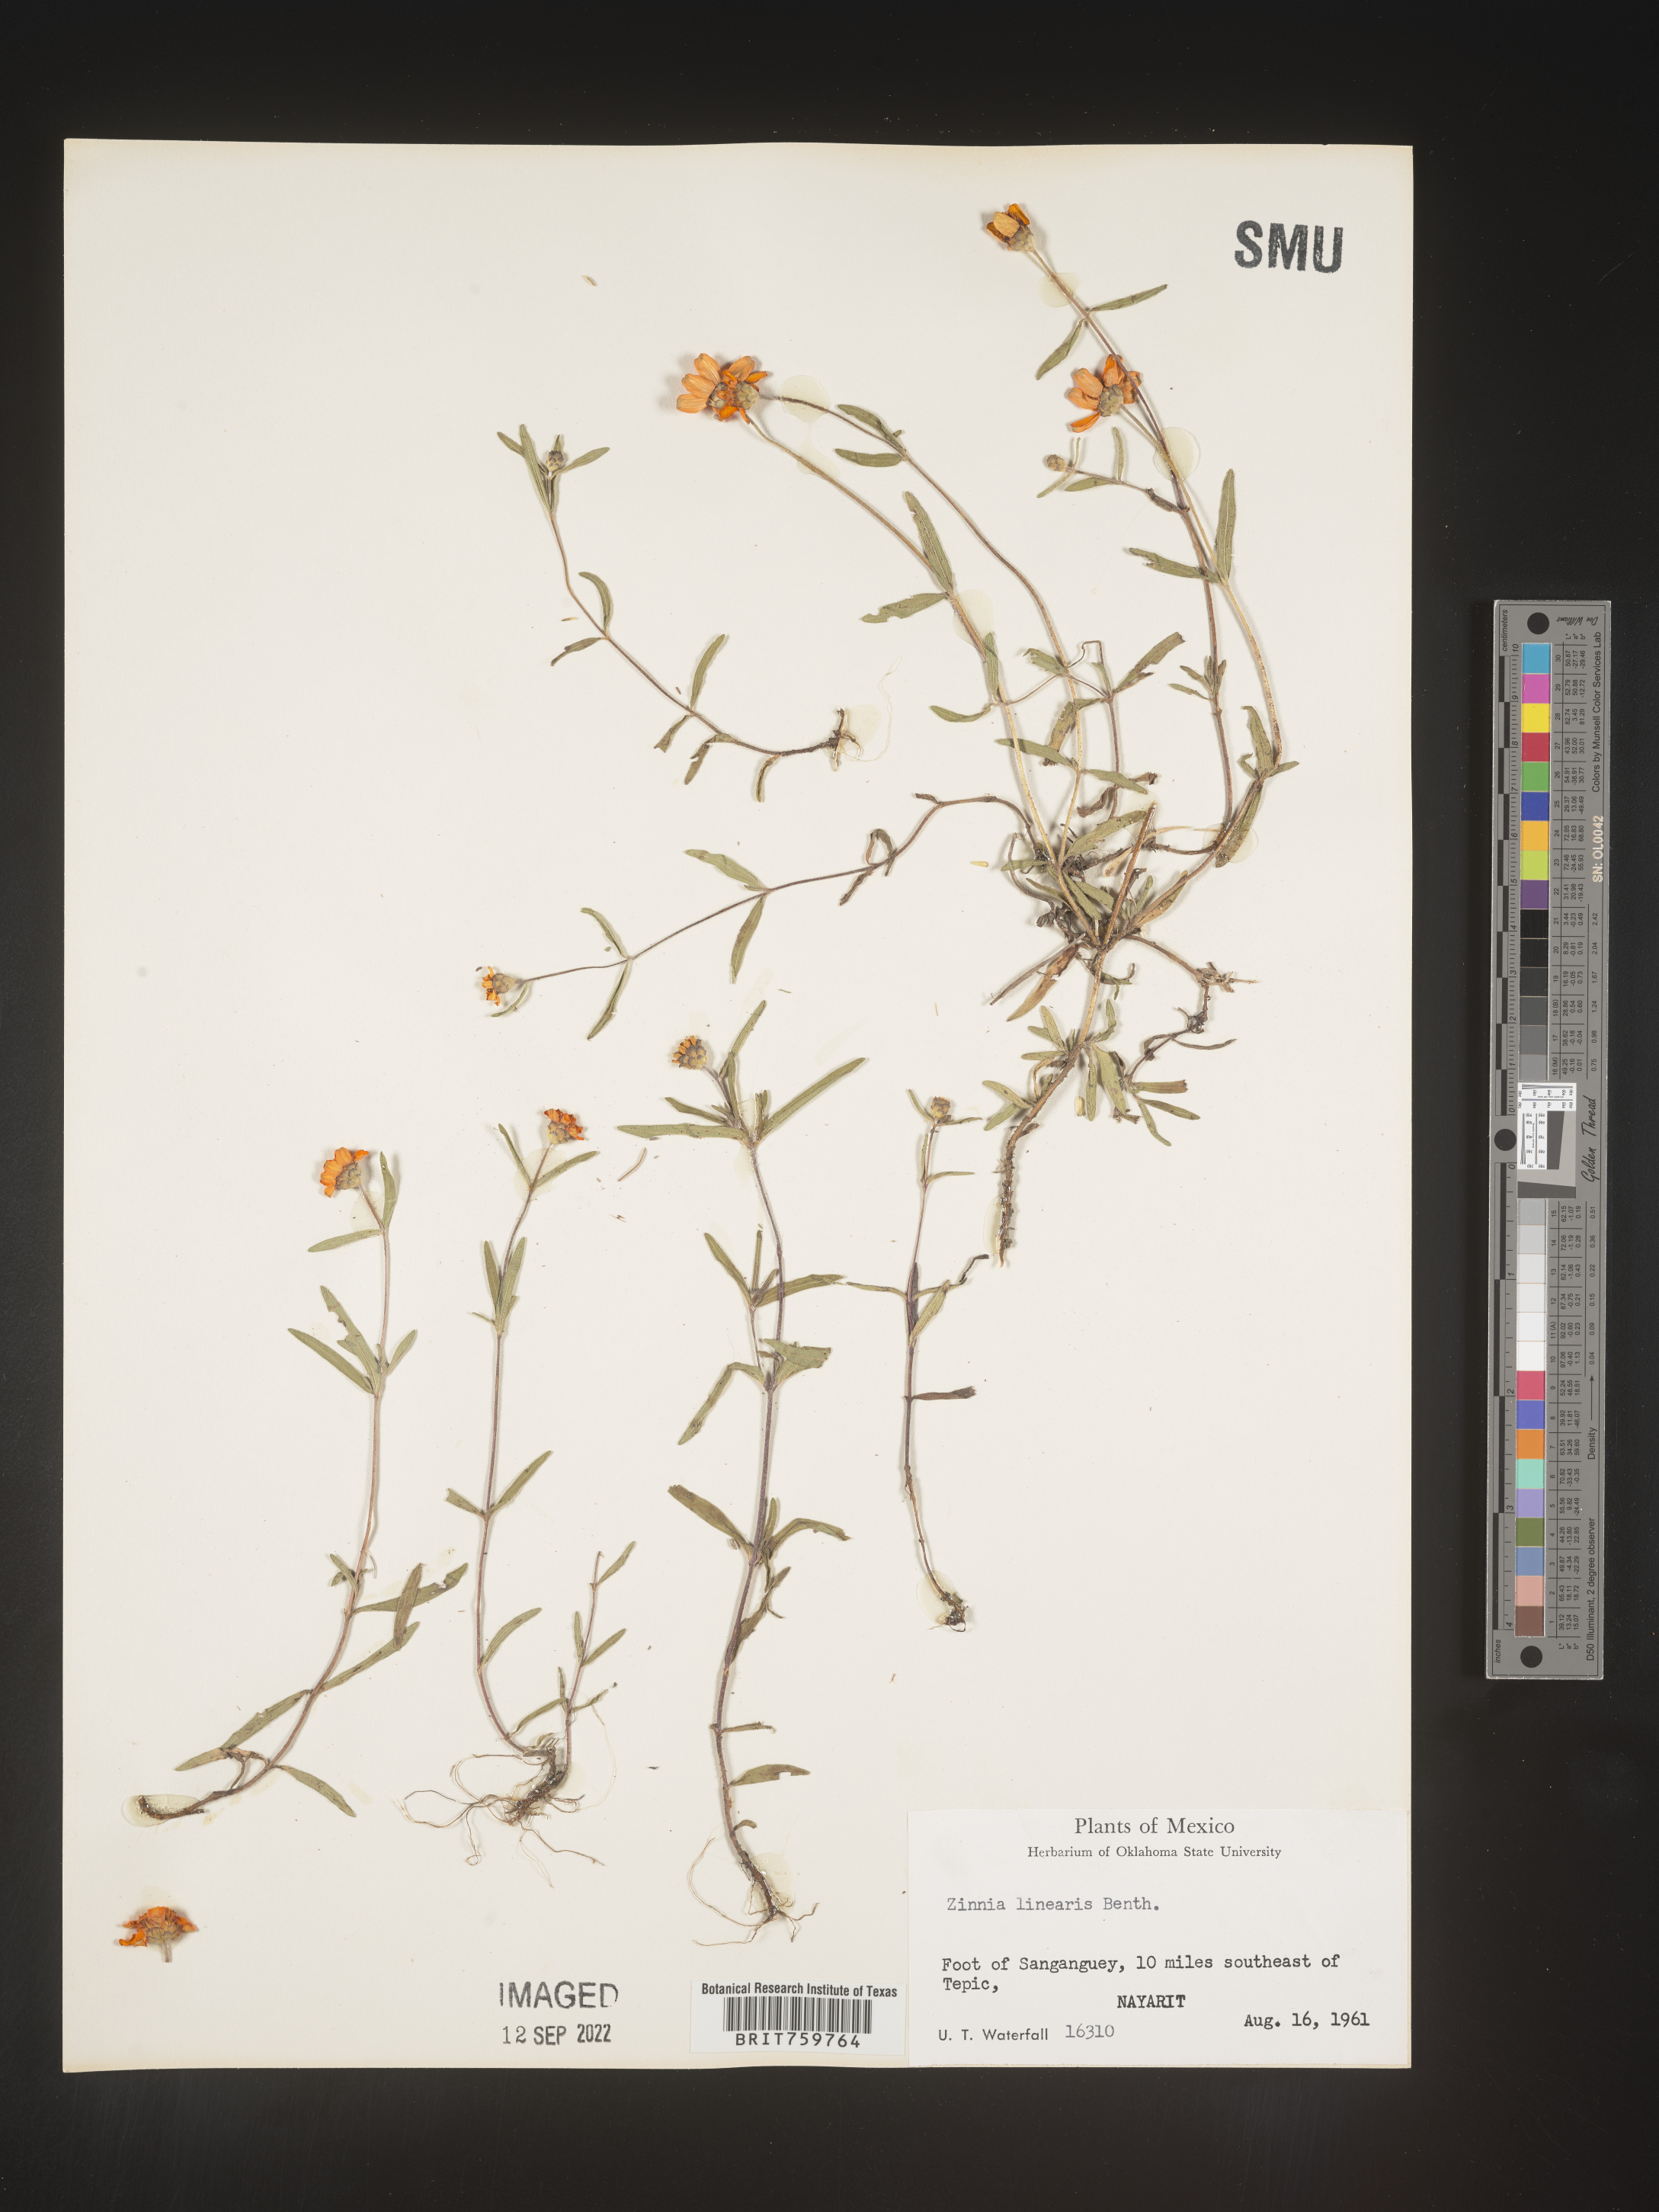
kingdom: Plantae
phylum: Tracheophyta
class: Magnoliopsida
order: Asterales
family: Asteraceae
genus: Zinnia
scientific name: Zinnia
